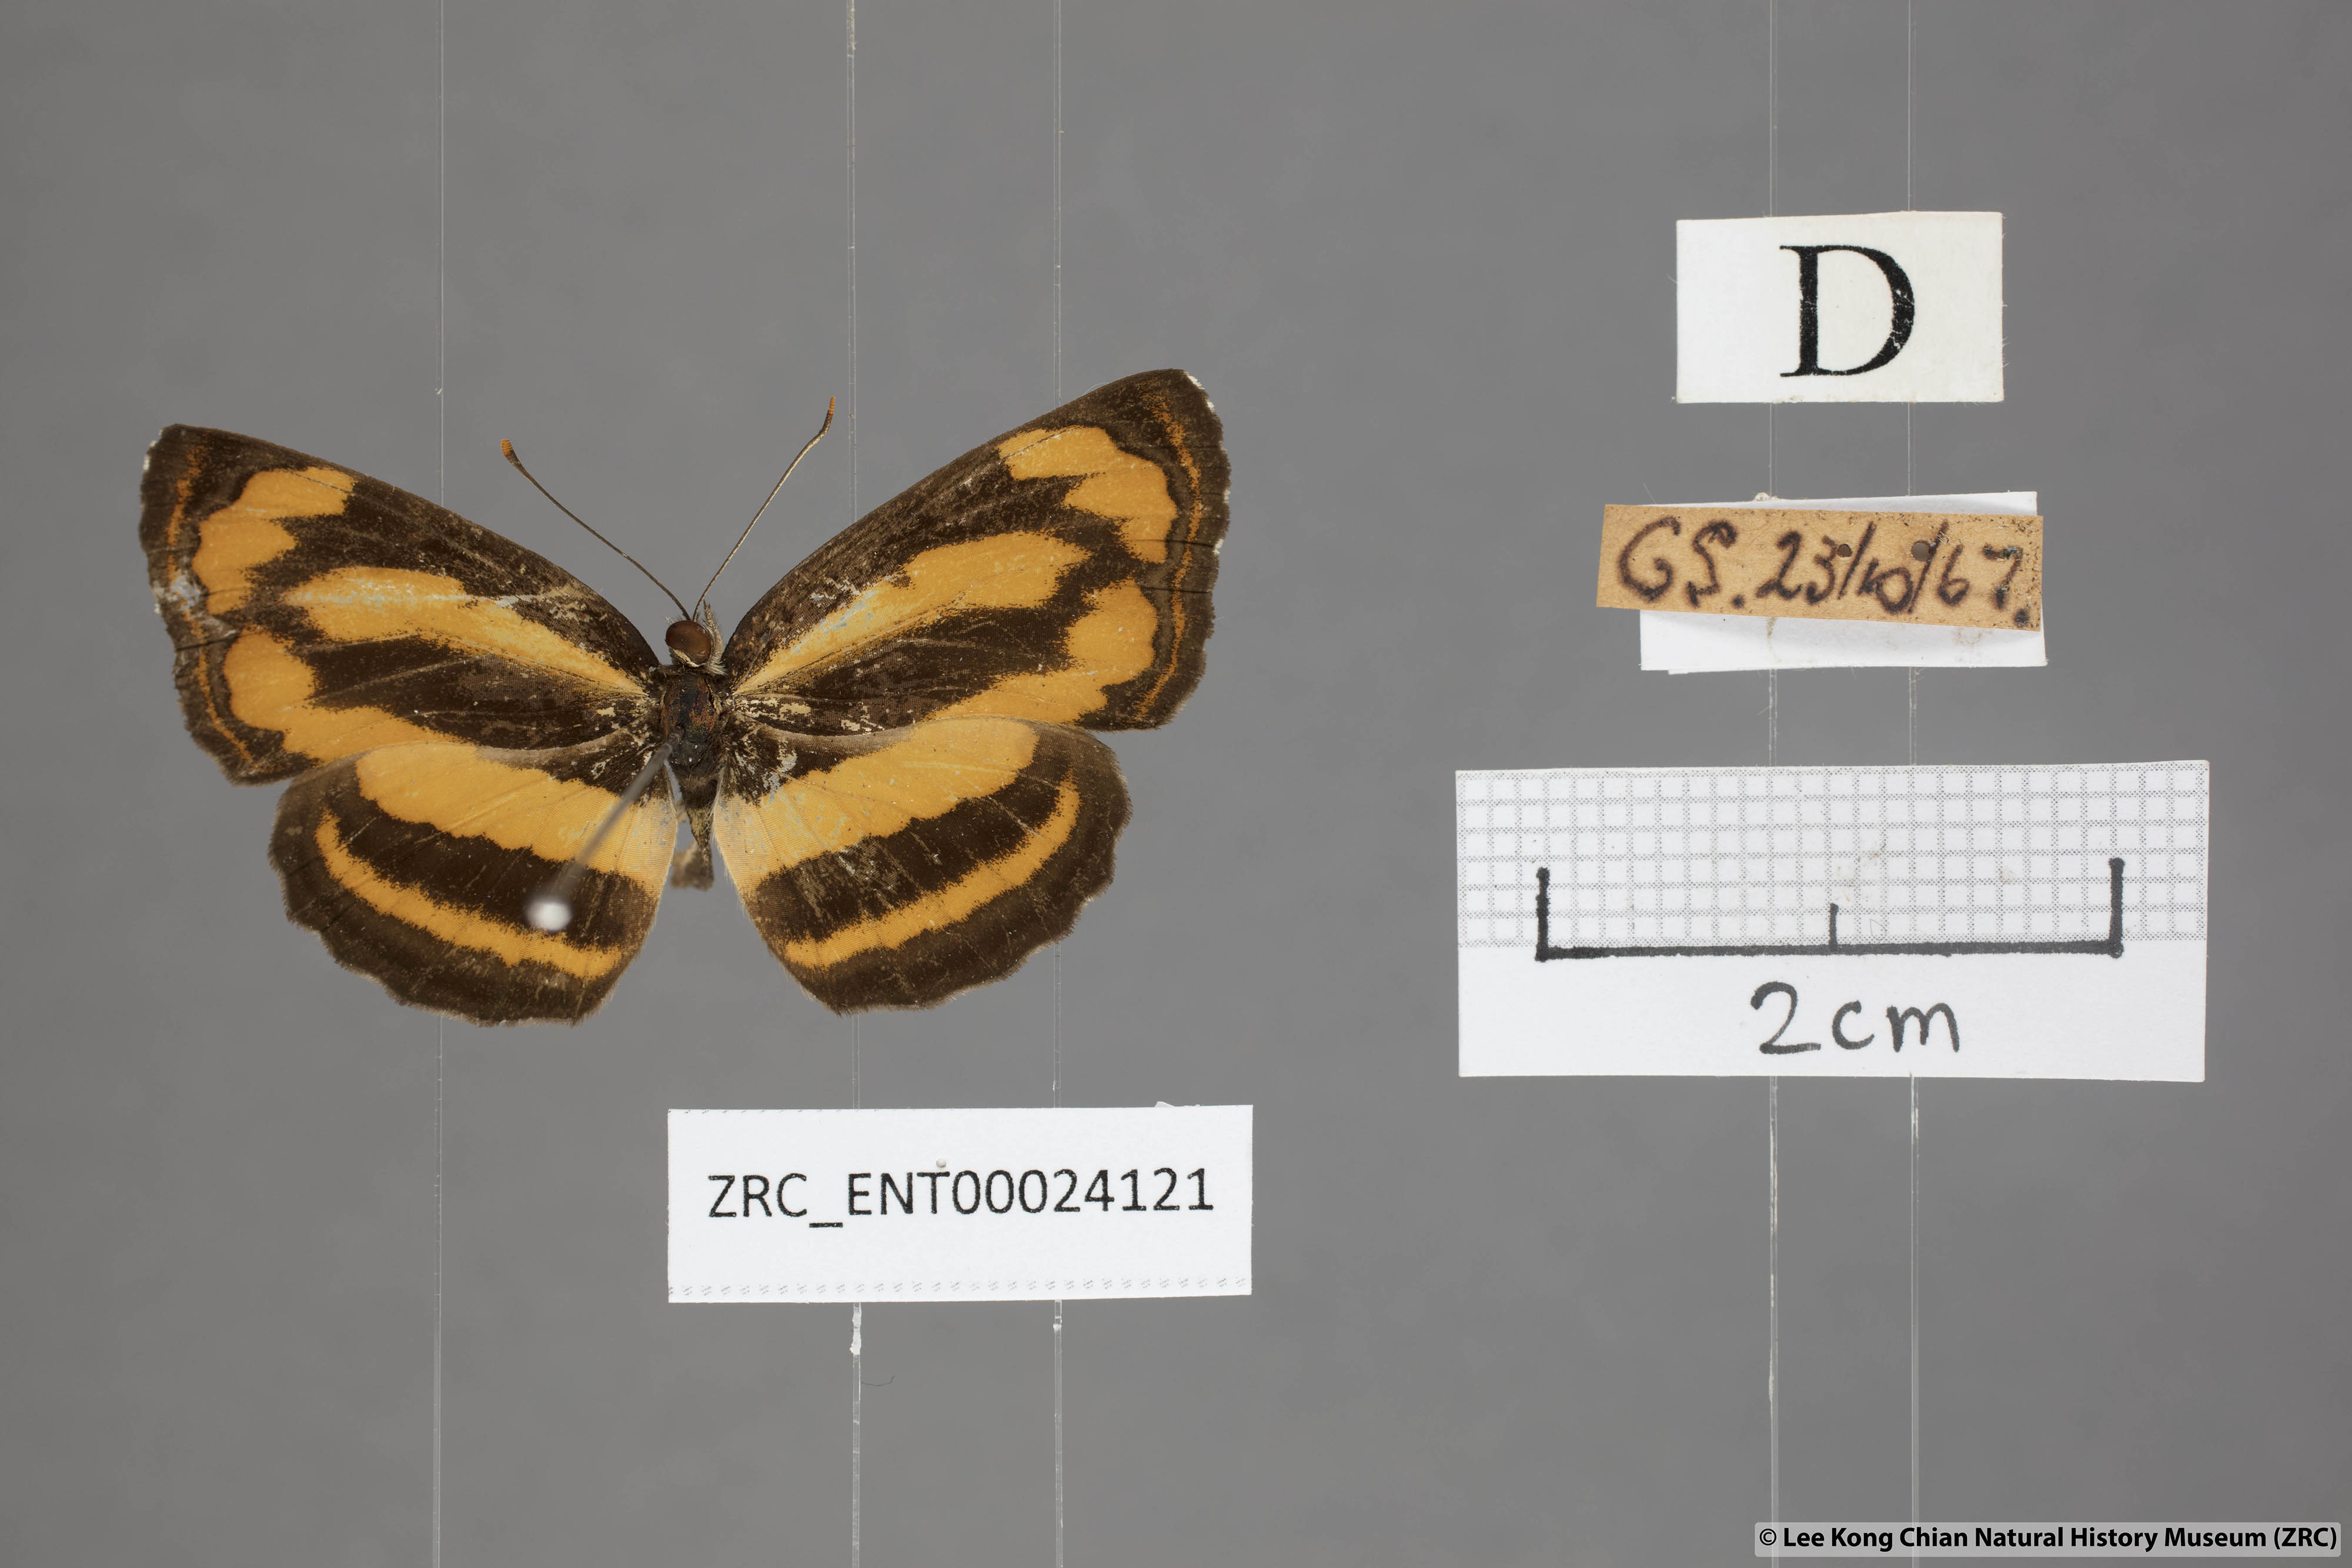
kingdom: Animalia
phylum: Arthropoda
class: Insecta
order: Lepidoptera
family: Nymphalidae
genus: Pantoporia
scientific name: Pantoporia hordonia
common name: Common lascar
